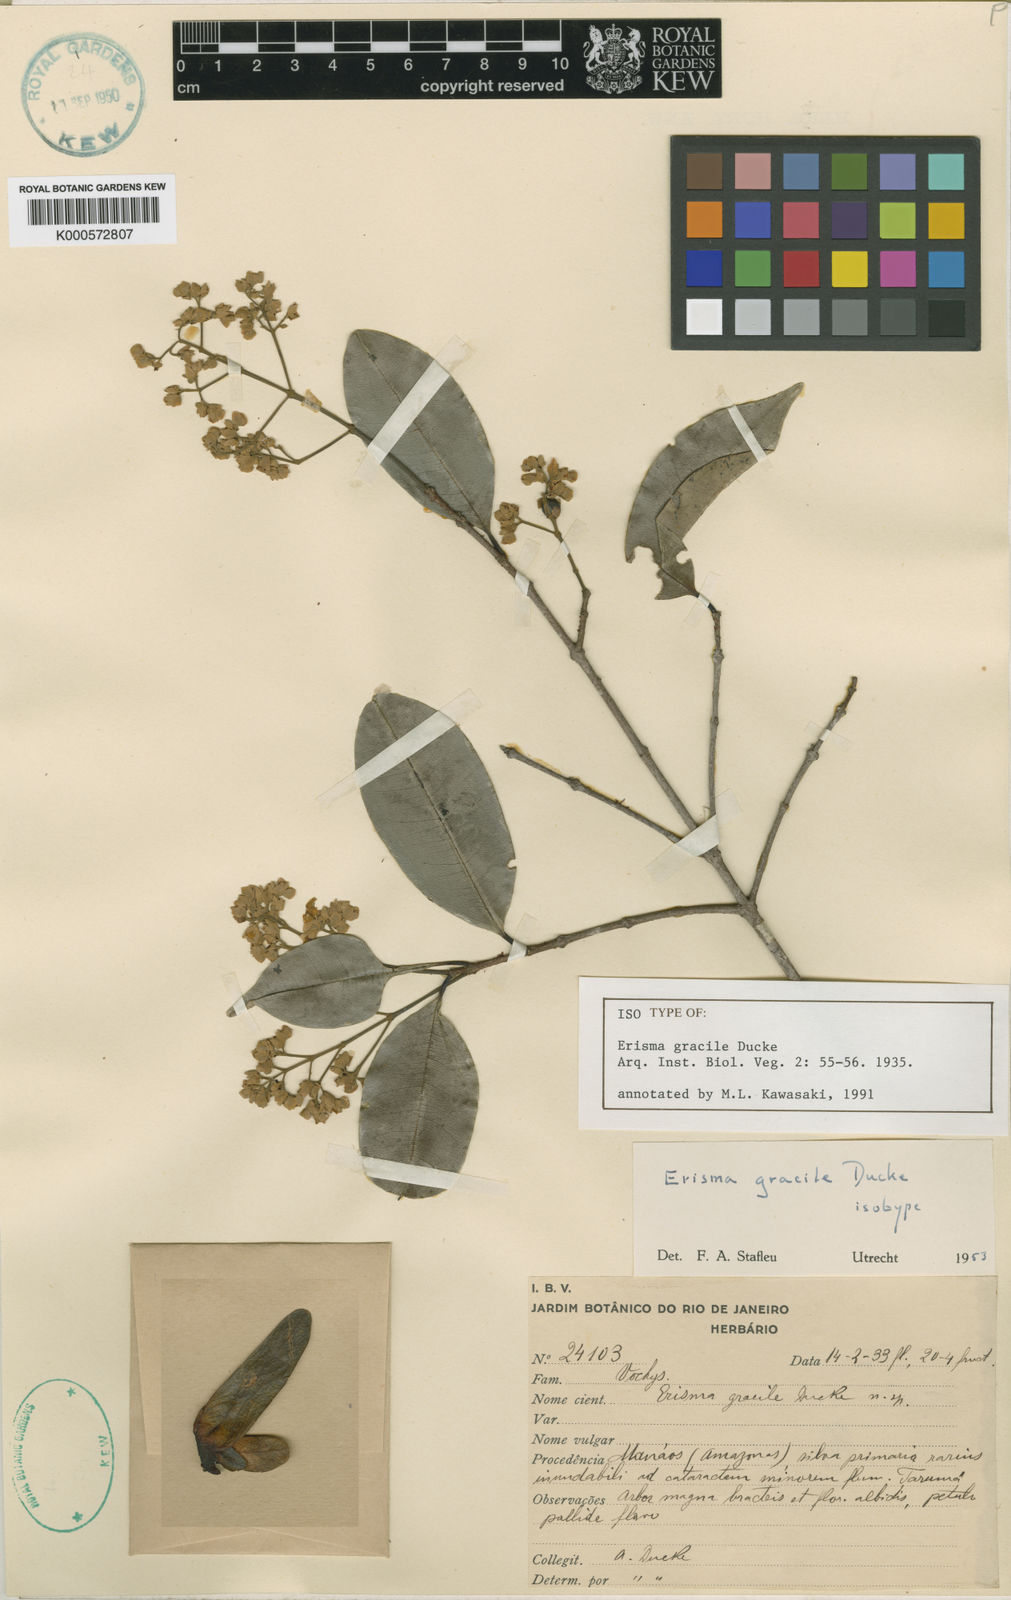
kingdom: Plantae
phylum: Tracheophyta
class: Magnoliopsida
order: Myrtales
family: Vochysiaceae
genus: Erisma
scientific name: Erisma gracile
